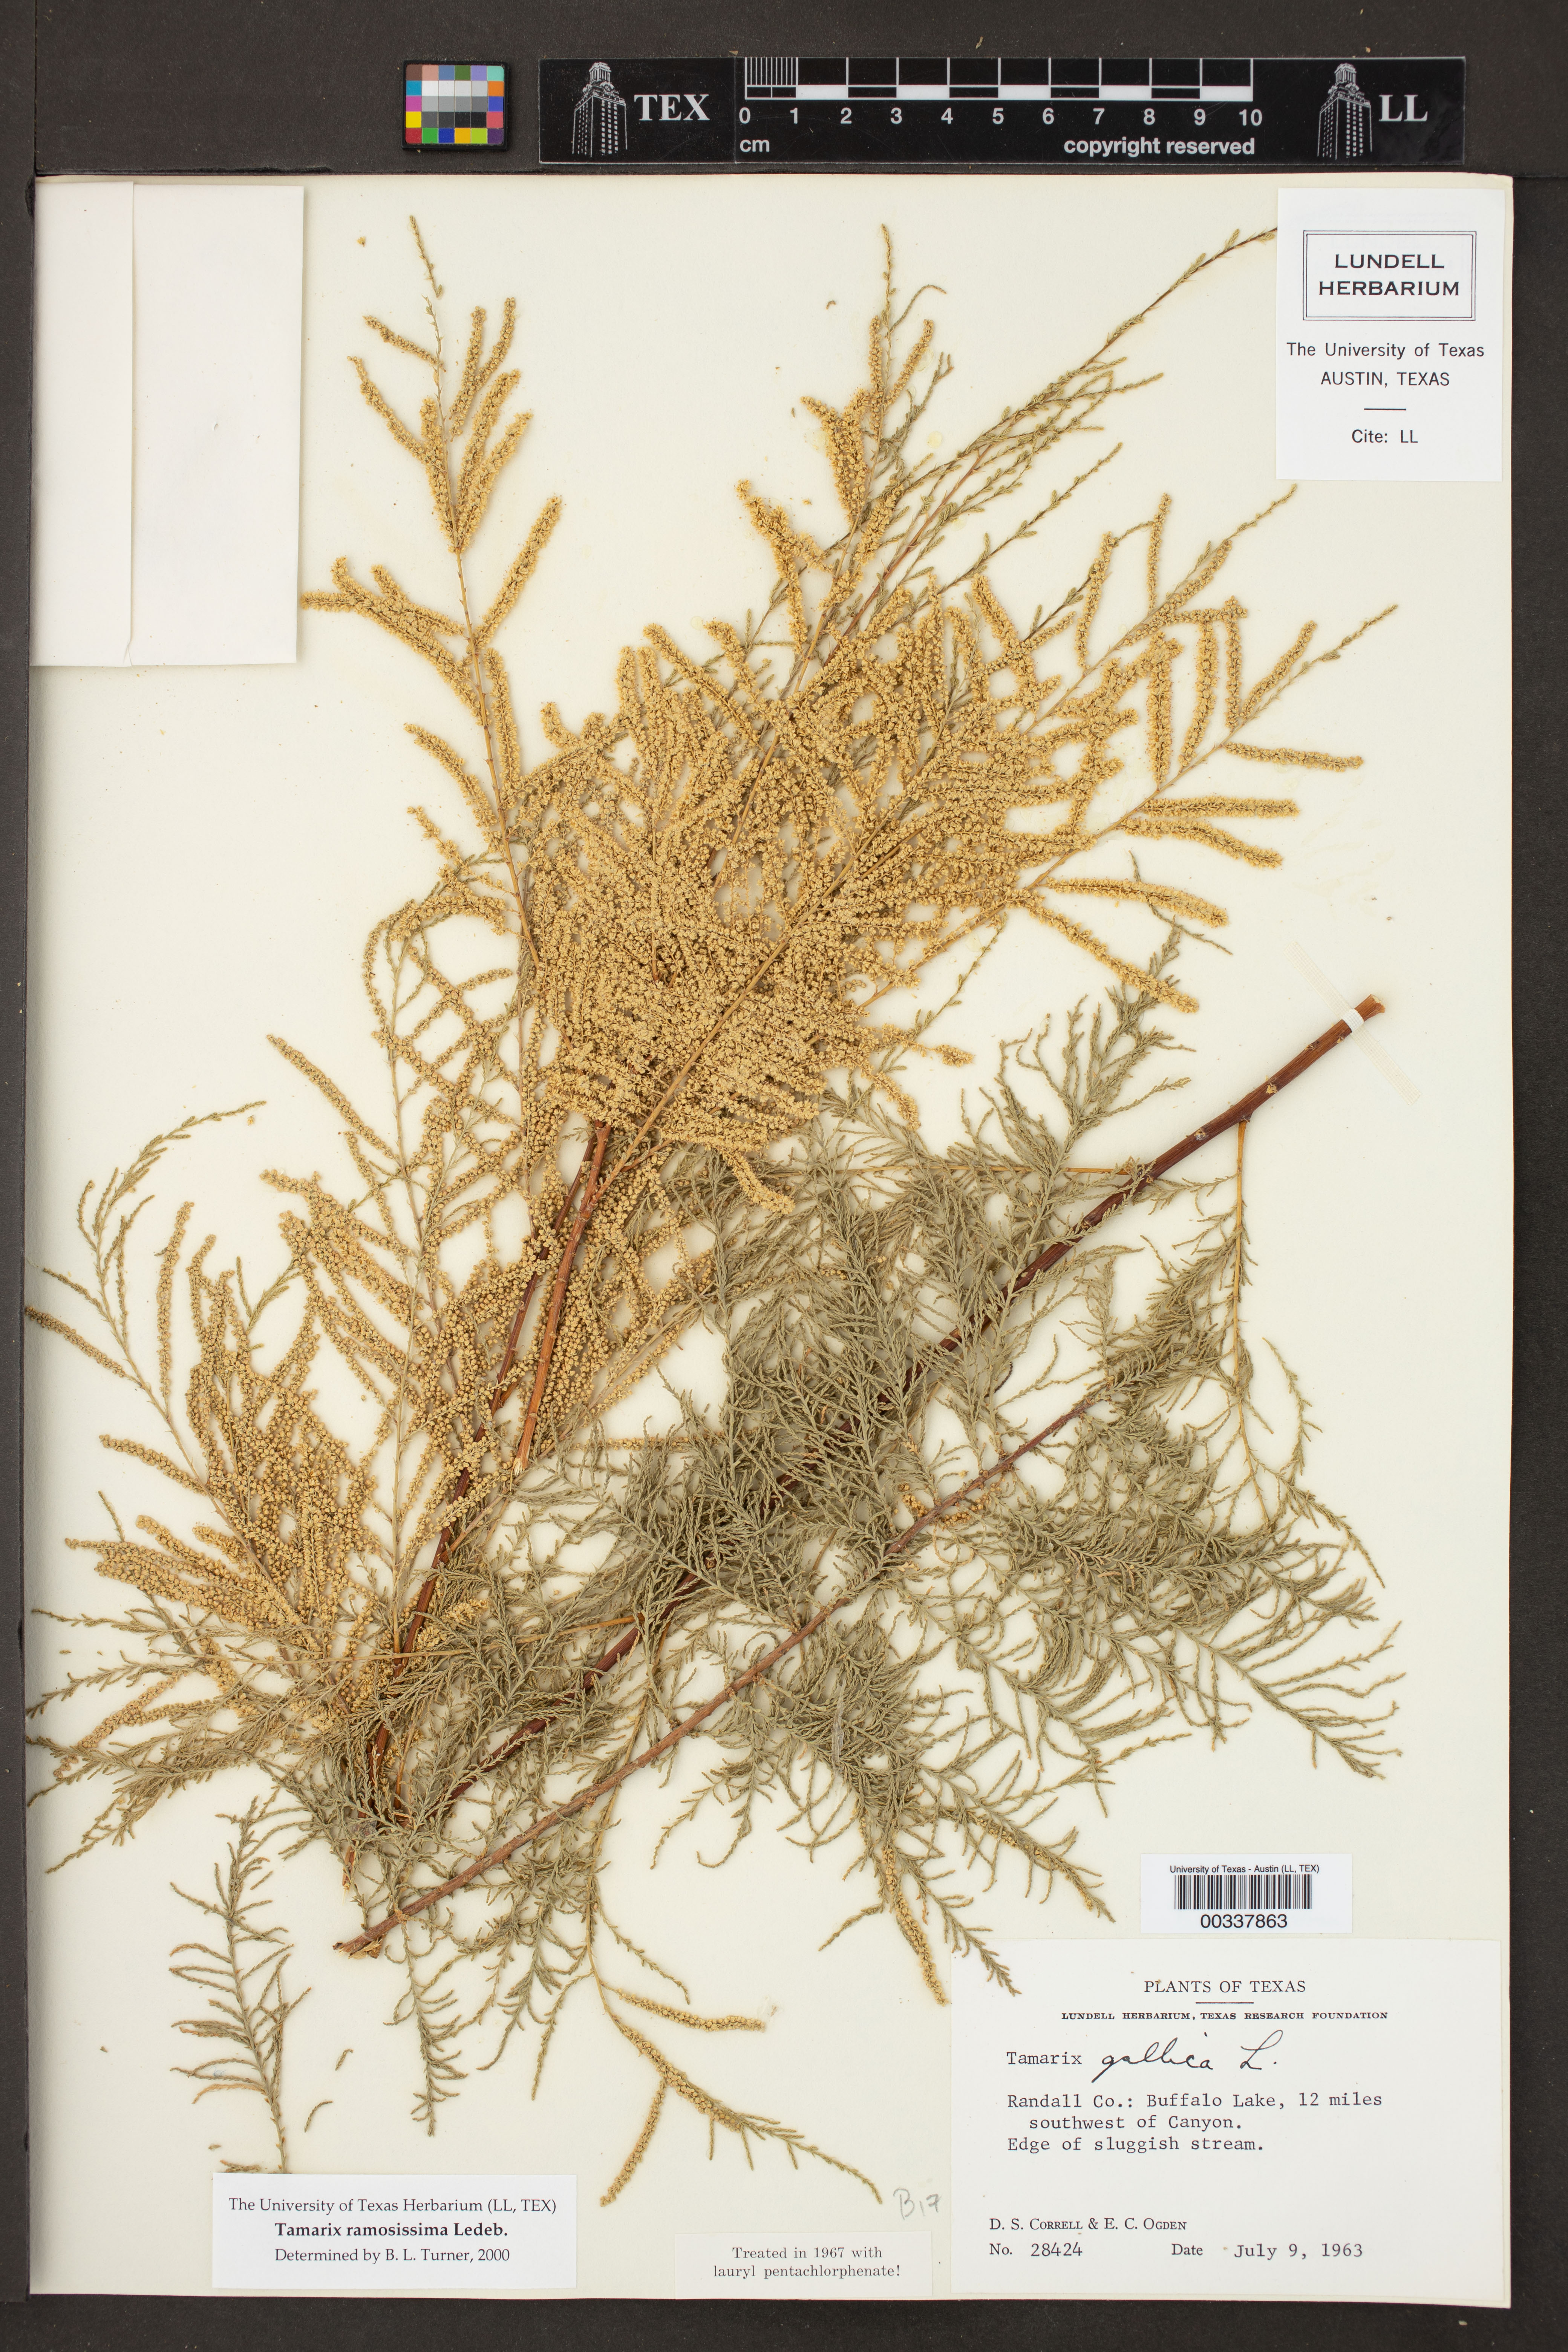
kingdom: Plantae
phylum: Tracheophyta
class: Magnoliopsida
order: Caryophyllales
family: Tamaricaceae
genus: Tamarix
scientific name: Tamarix ramosissima
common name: Pink tamarisk
